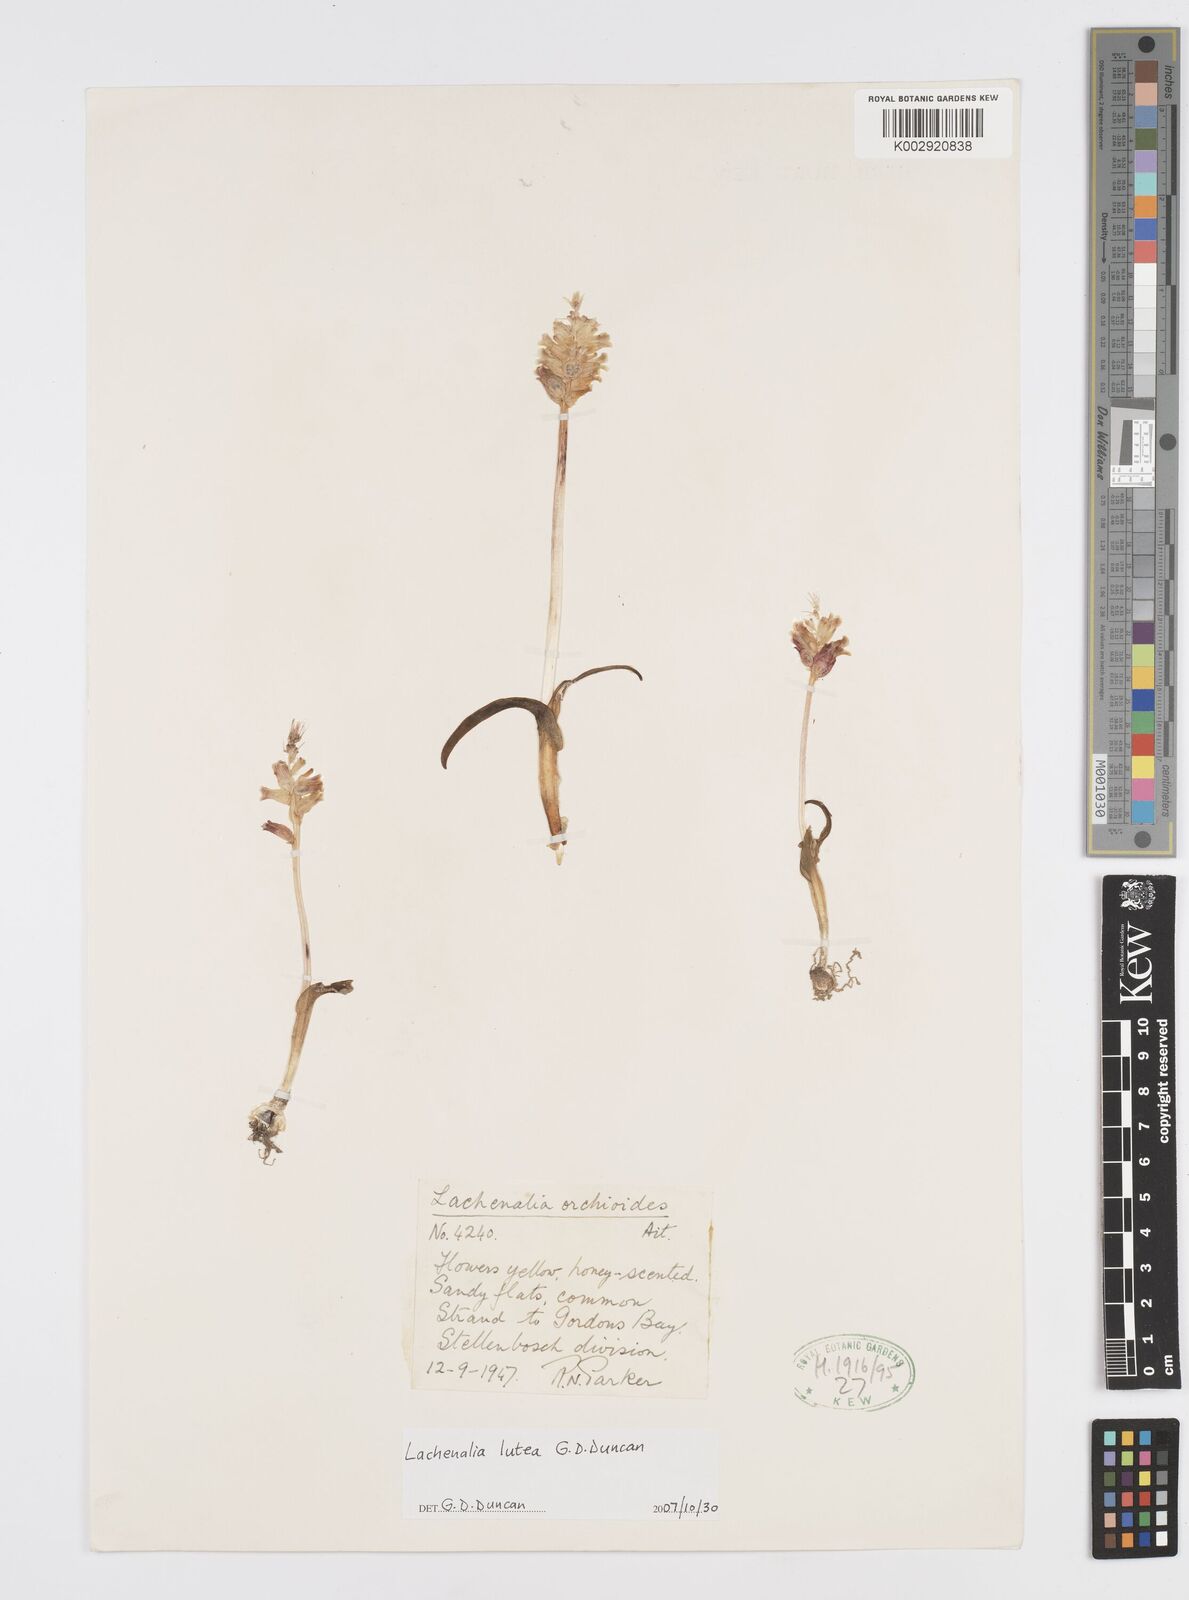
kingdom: Plantae
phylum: Tracheophyta
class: Liliopsida
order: Asparagales
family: Asparagaceae
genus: Lachenalia
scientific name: Lachenalia lutea
